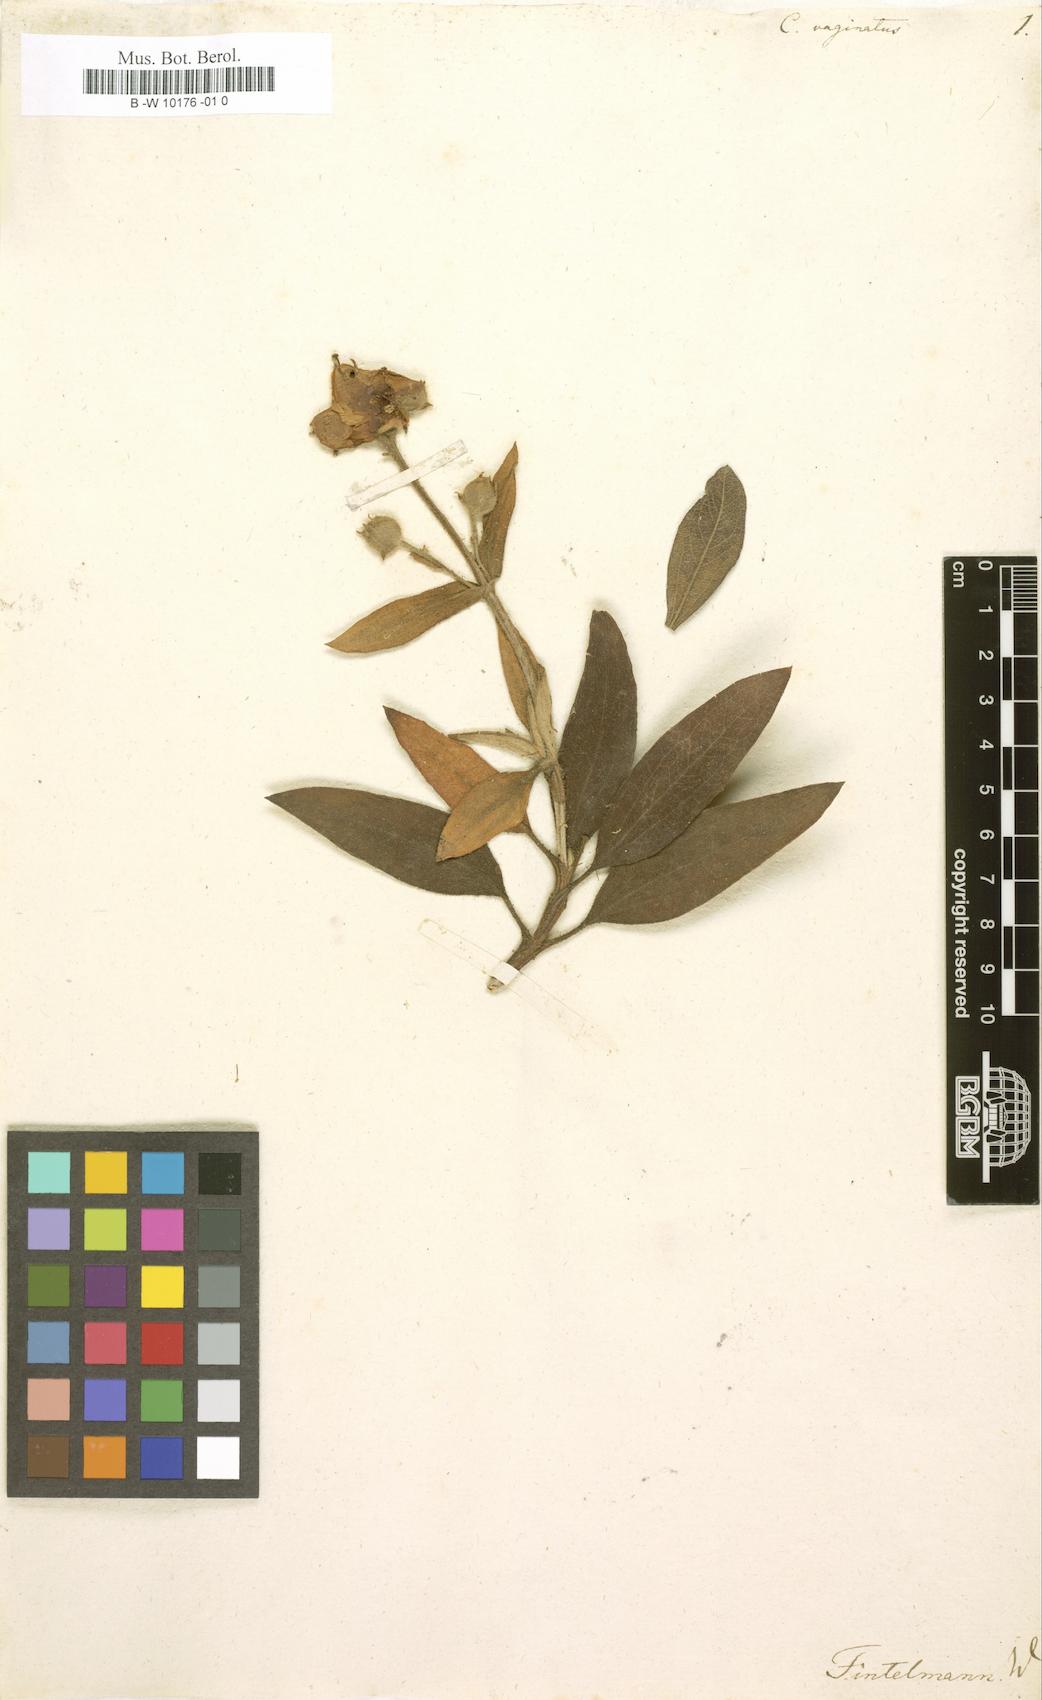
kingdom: Plantae
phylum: Tracheophyta
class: Magnoliopsida
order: Malvales
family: Cistaceae
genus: Cistus
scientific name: Cistus symphytifolius
